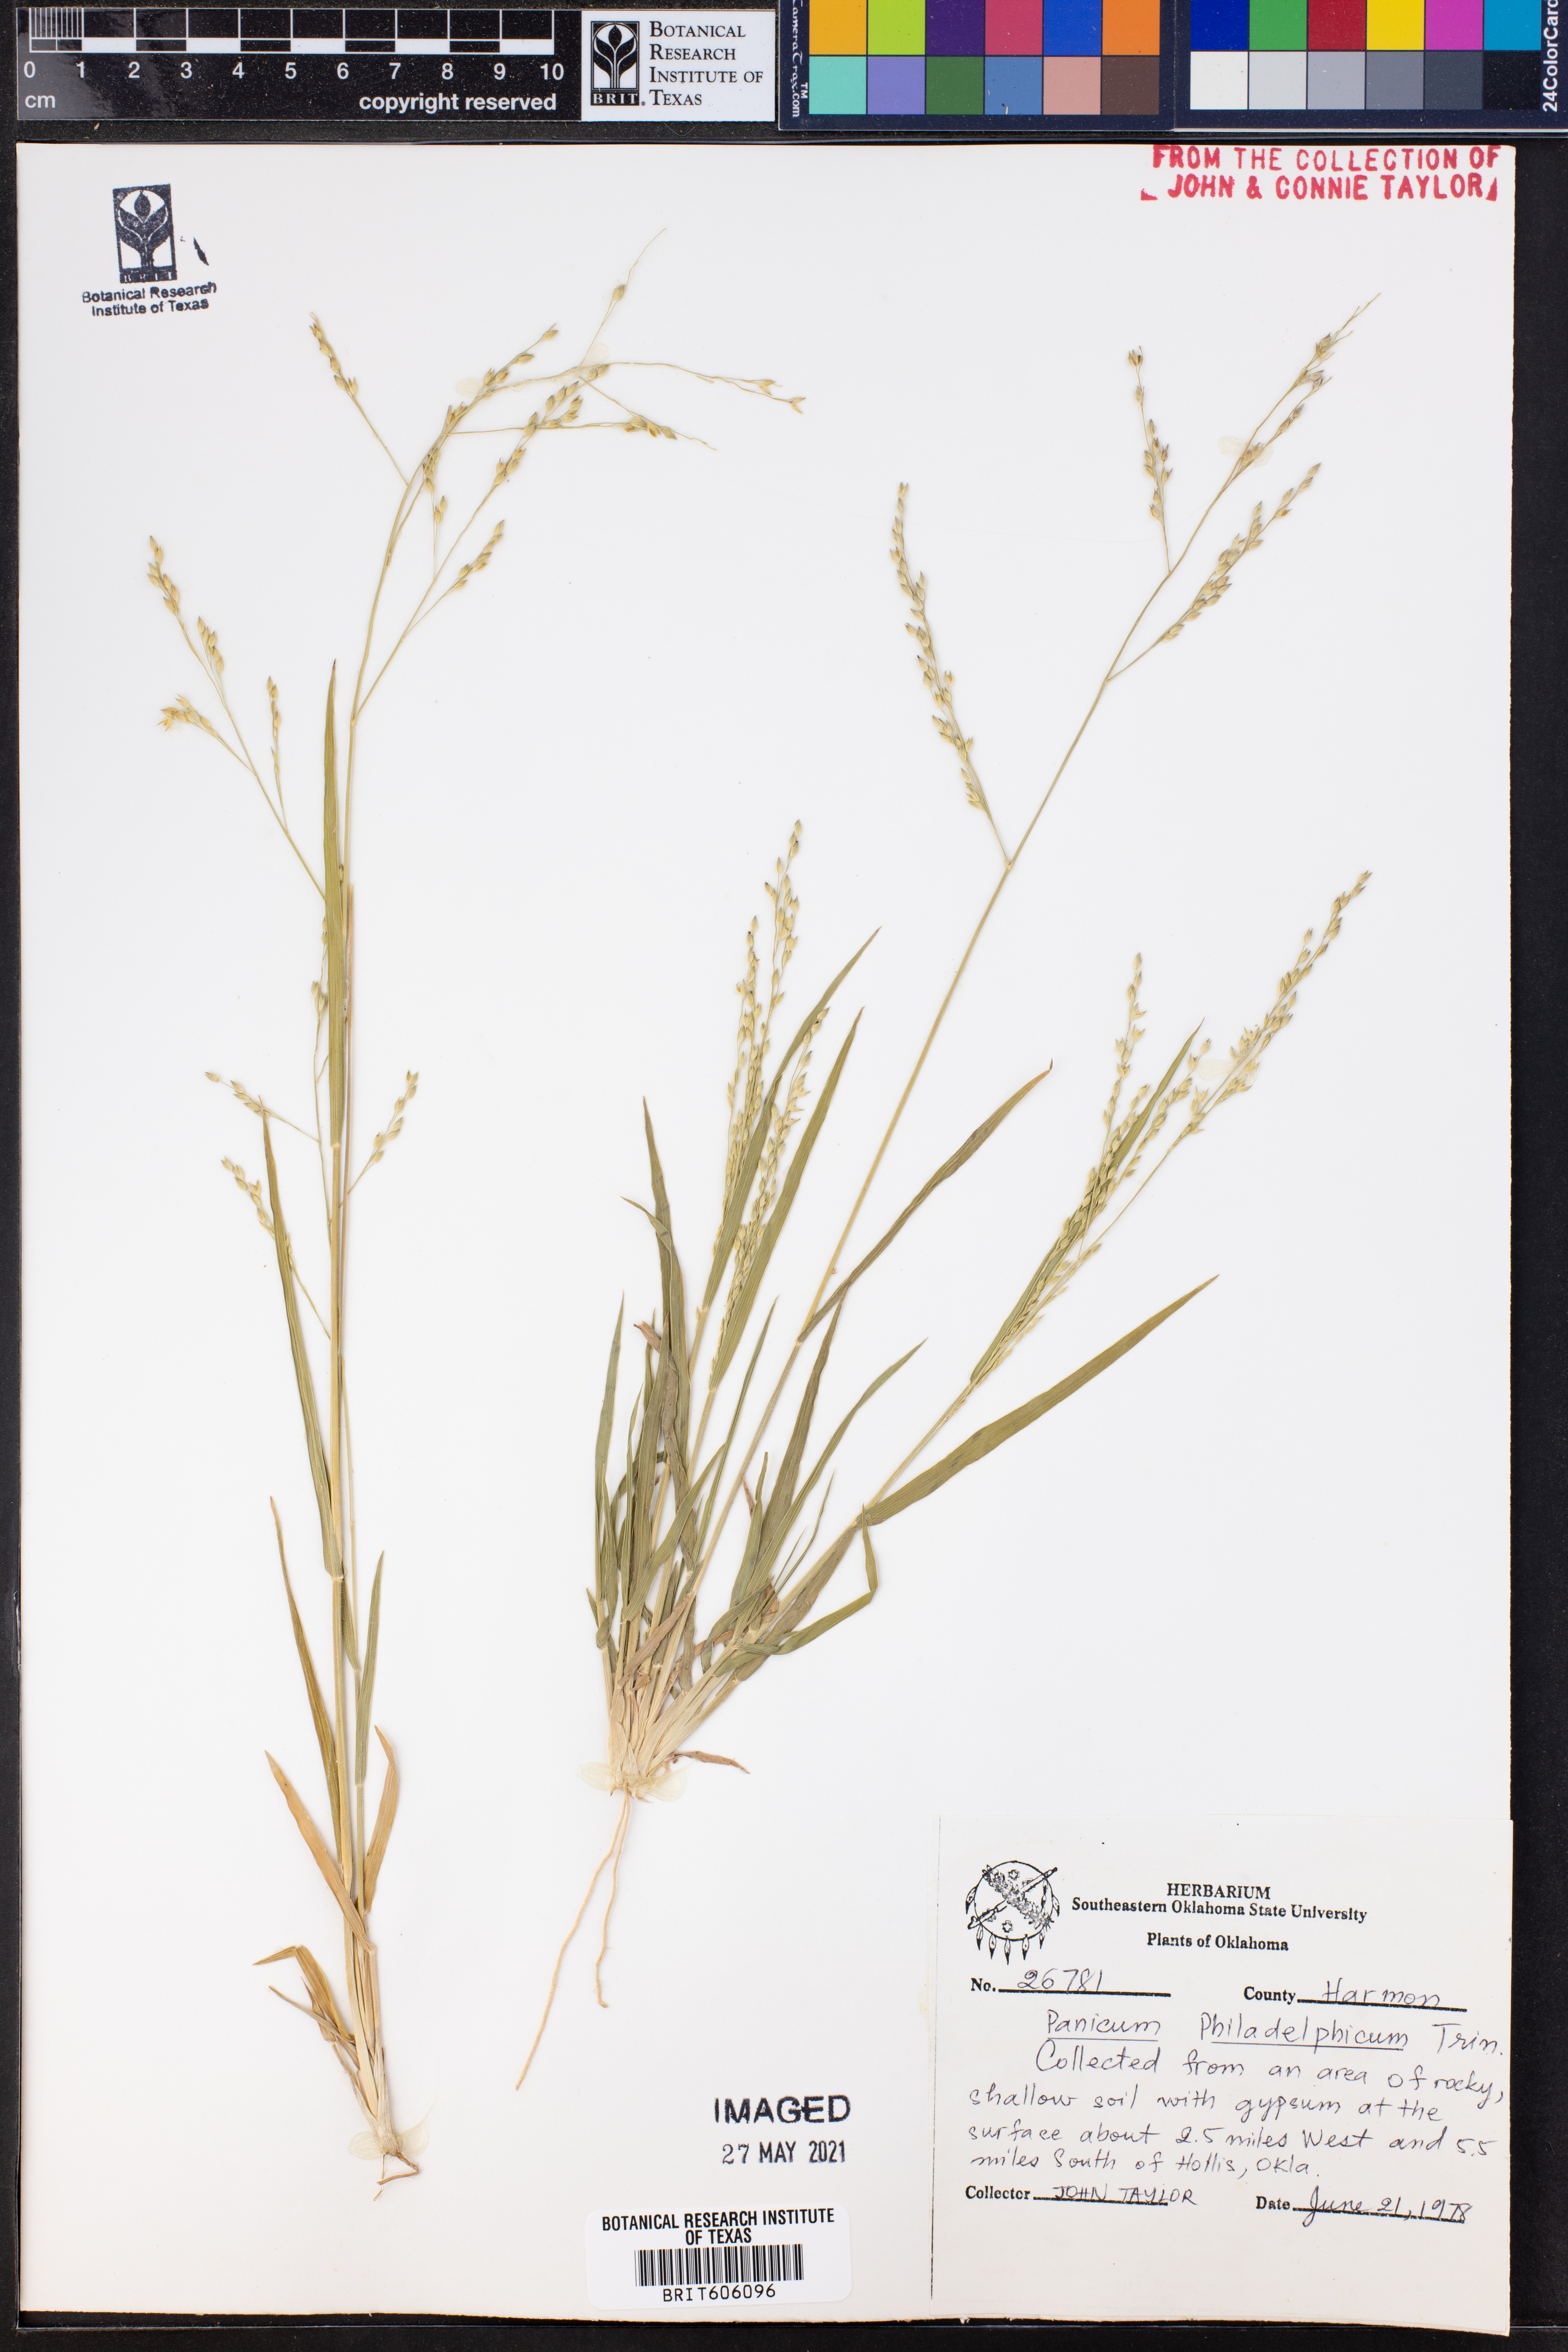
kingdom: Plantae
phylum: Tracheophyta
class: Liliopsida
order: Poales
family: Poaceae
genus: Panicum
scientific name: Panicum philadelphicum
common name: Philadelphia witchgrass
